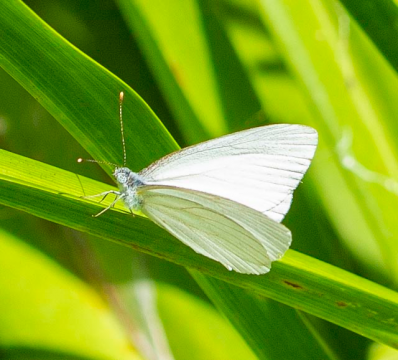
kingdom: Animalia
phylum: Arthropoda
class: Insecta
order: Lepidoptera
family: Pieridae
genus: Pieris
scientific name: Pieris oleracea
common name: Mustard White
